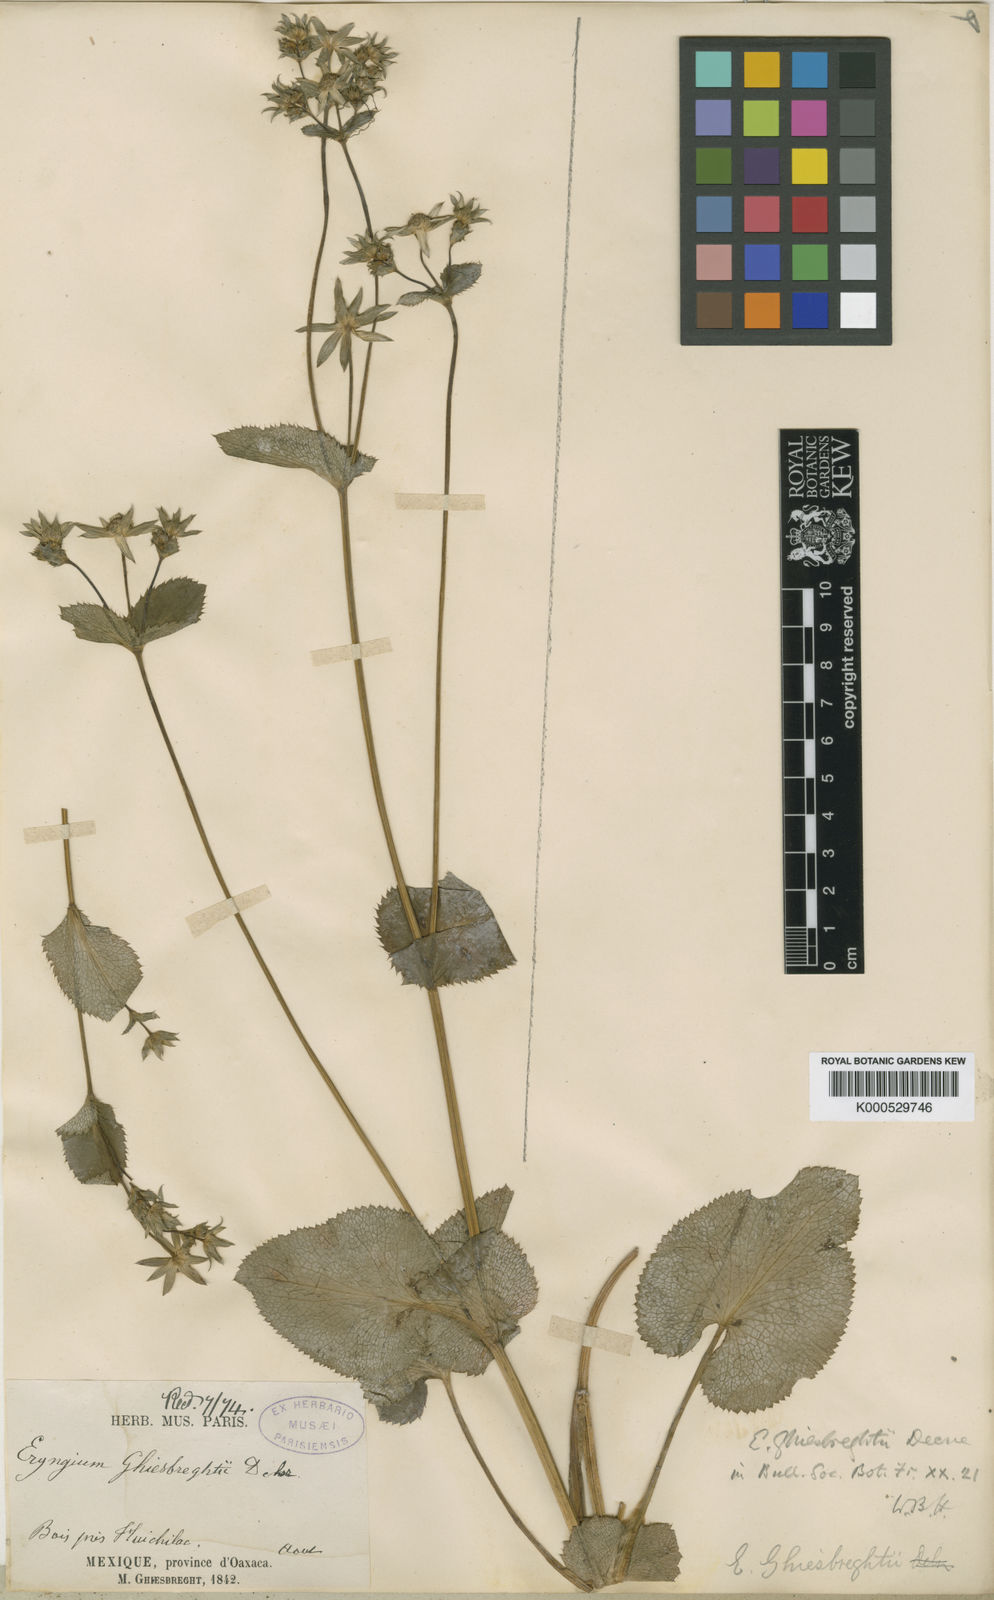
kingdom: Plantae
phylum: Tracheophyta
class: Magnoliopsida
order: Apiales
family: Apiaceae
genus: Eryngium
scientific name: Eryngium ghiesbreghtii
